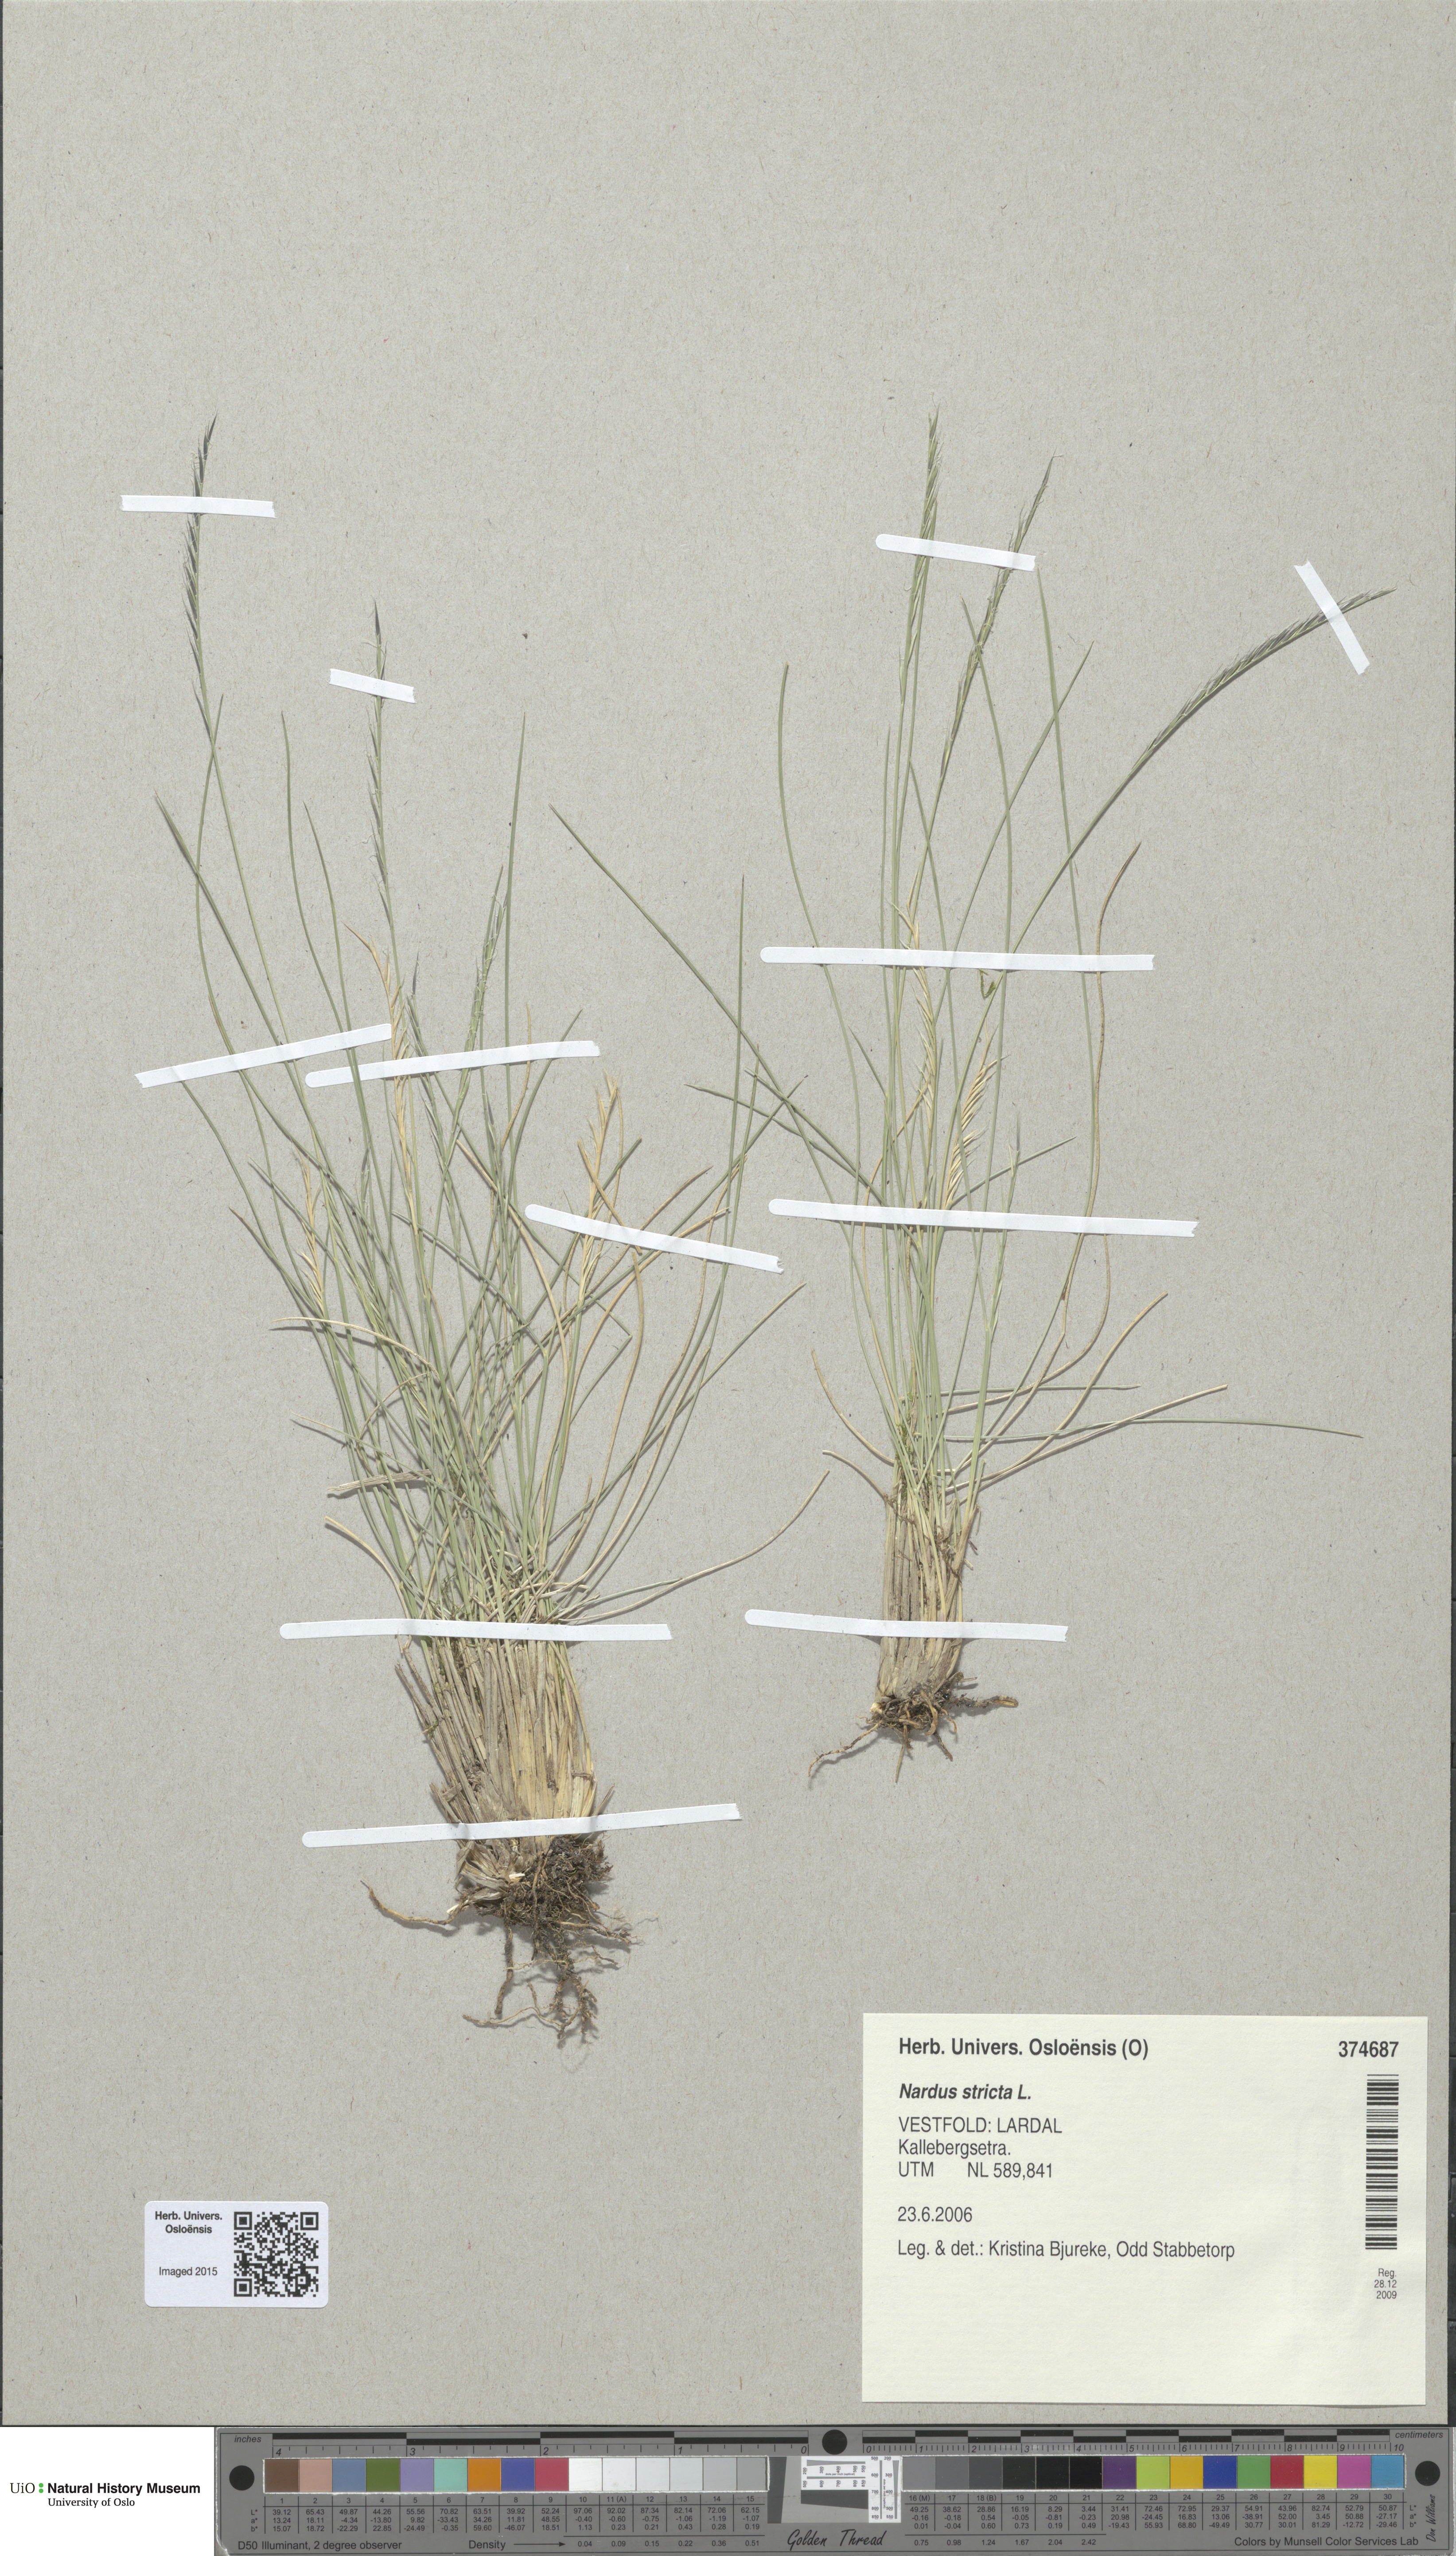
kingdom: Plantae
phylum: Tracheophyta
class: Liliopsida
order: Poales
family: Poaceae
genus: Nardus
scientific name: Nardus stricta
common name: Mat-grass
